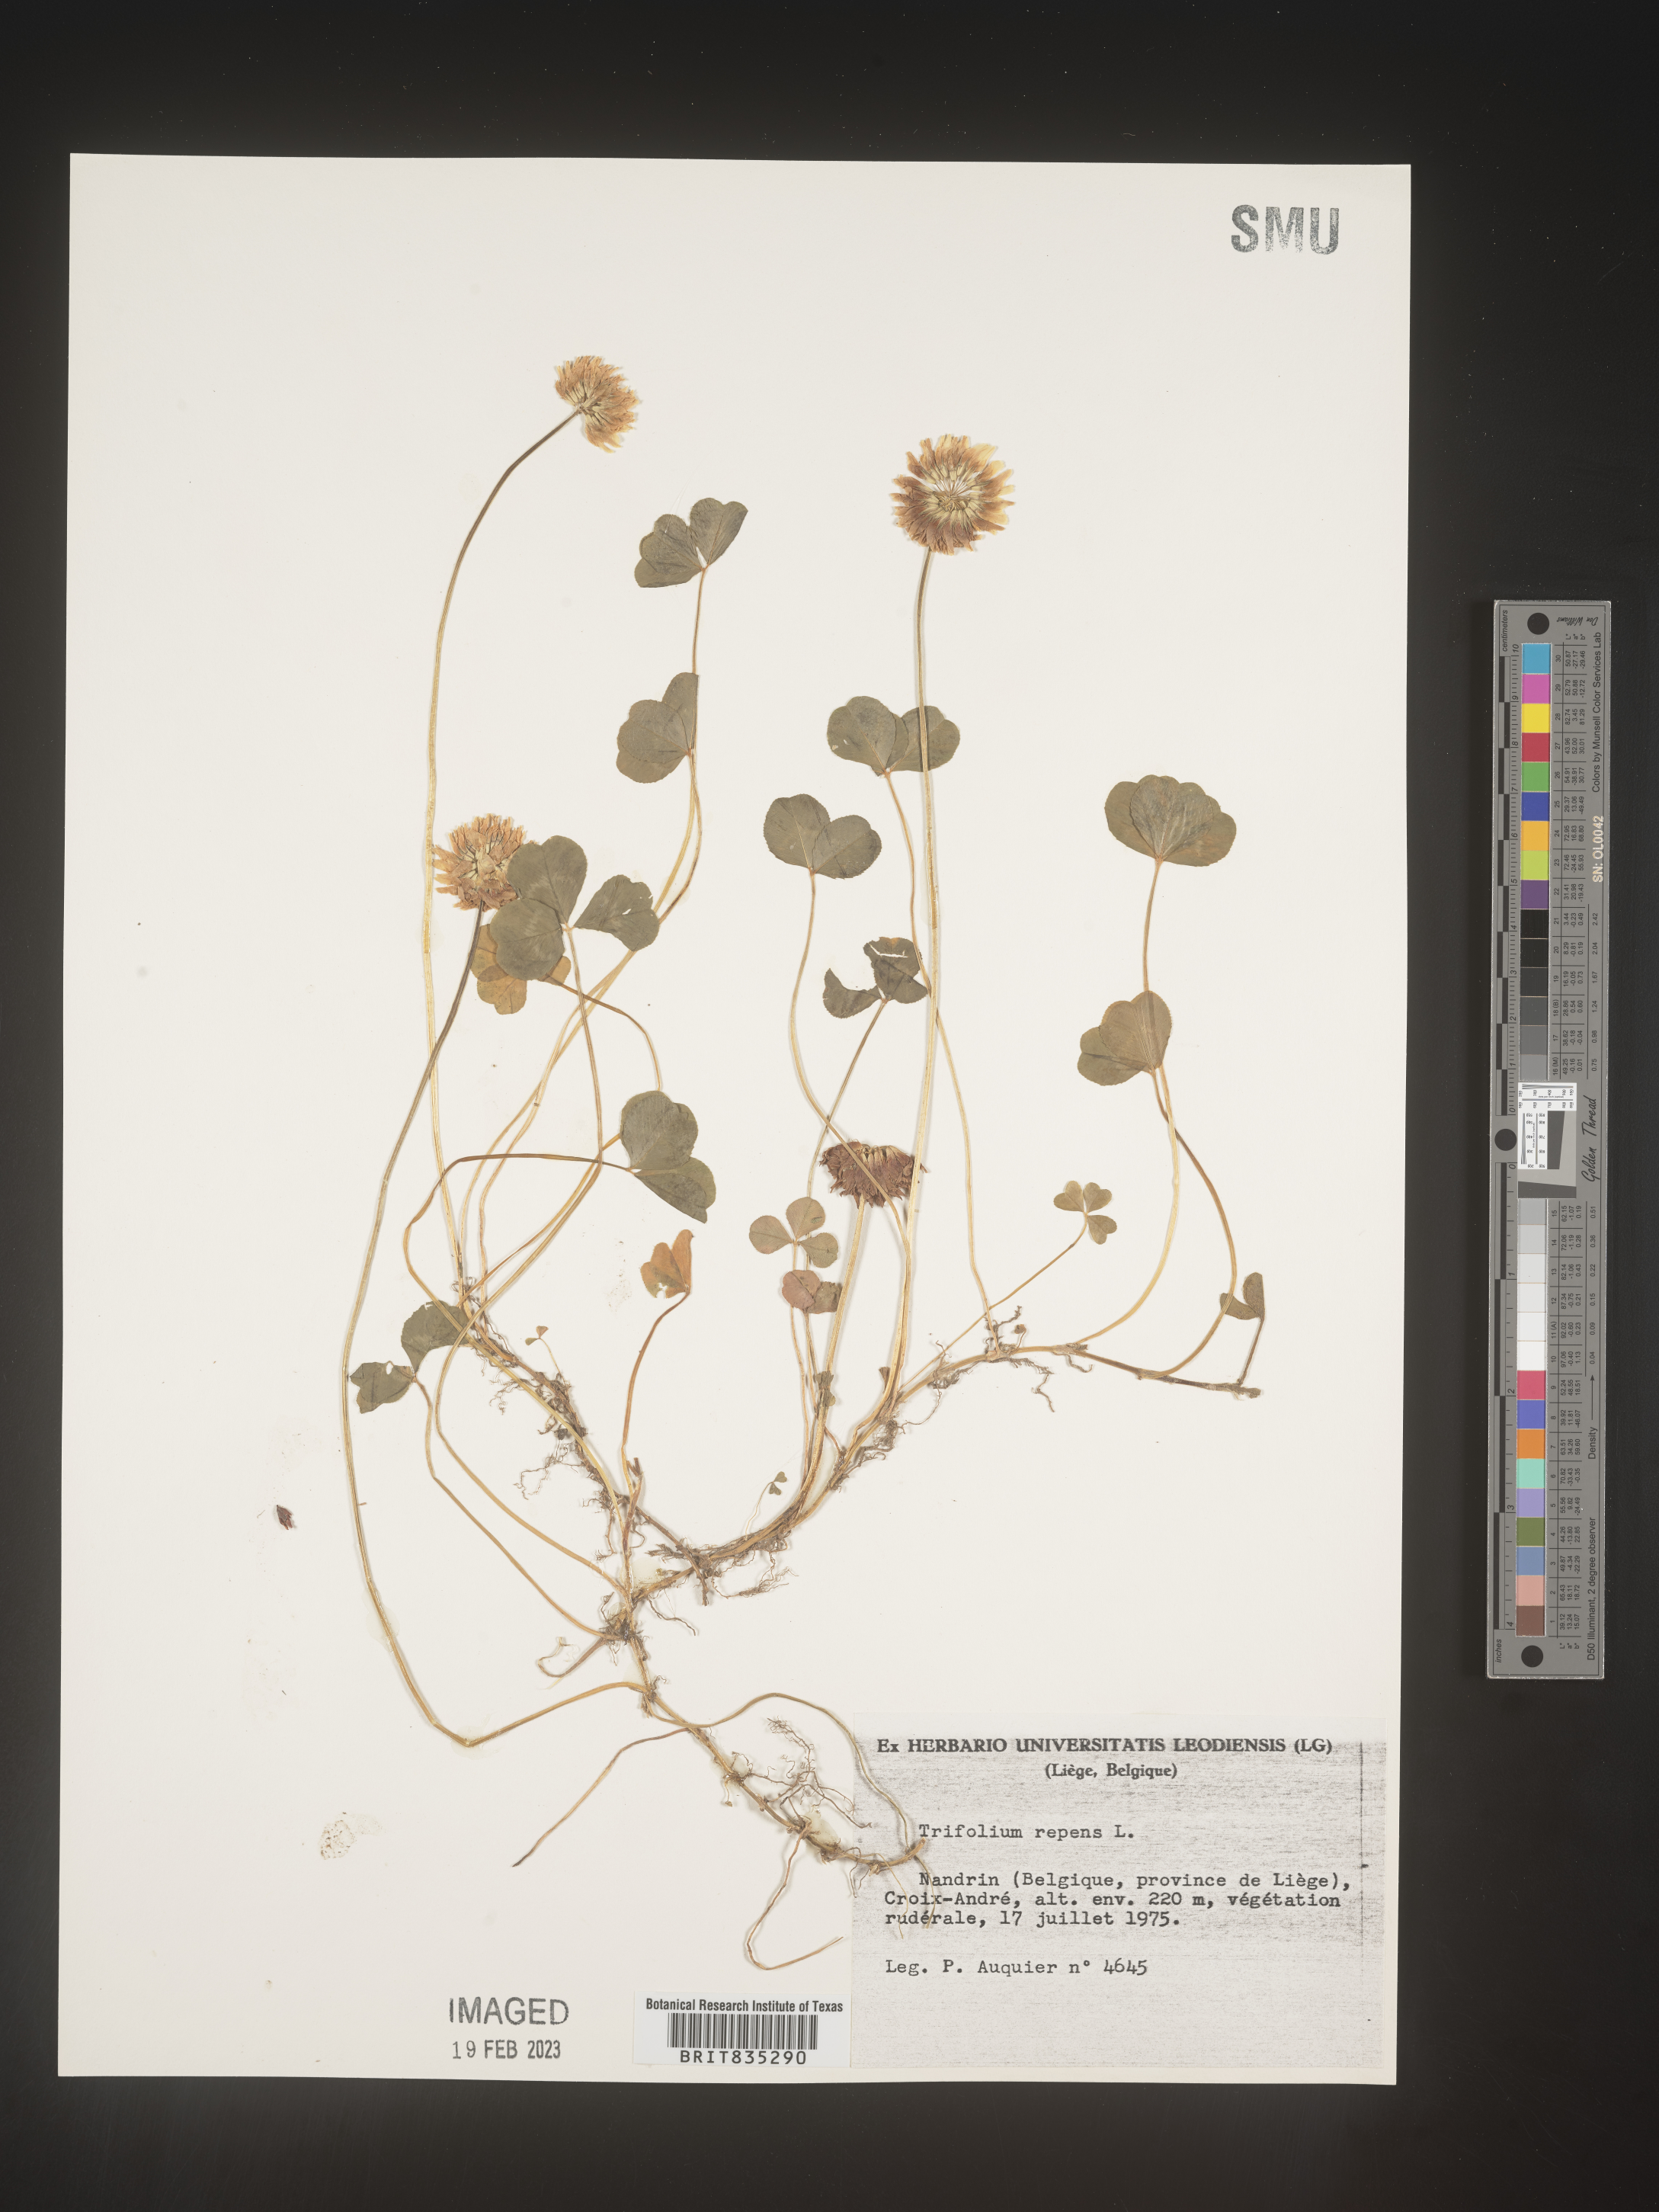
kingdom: Plantae
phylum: Tracheophyta
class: Magnoliopsida
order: Fabales
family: Fabaceae
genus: Trifolium
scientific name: Trifolium
